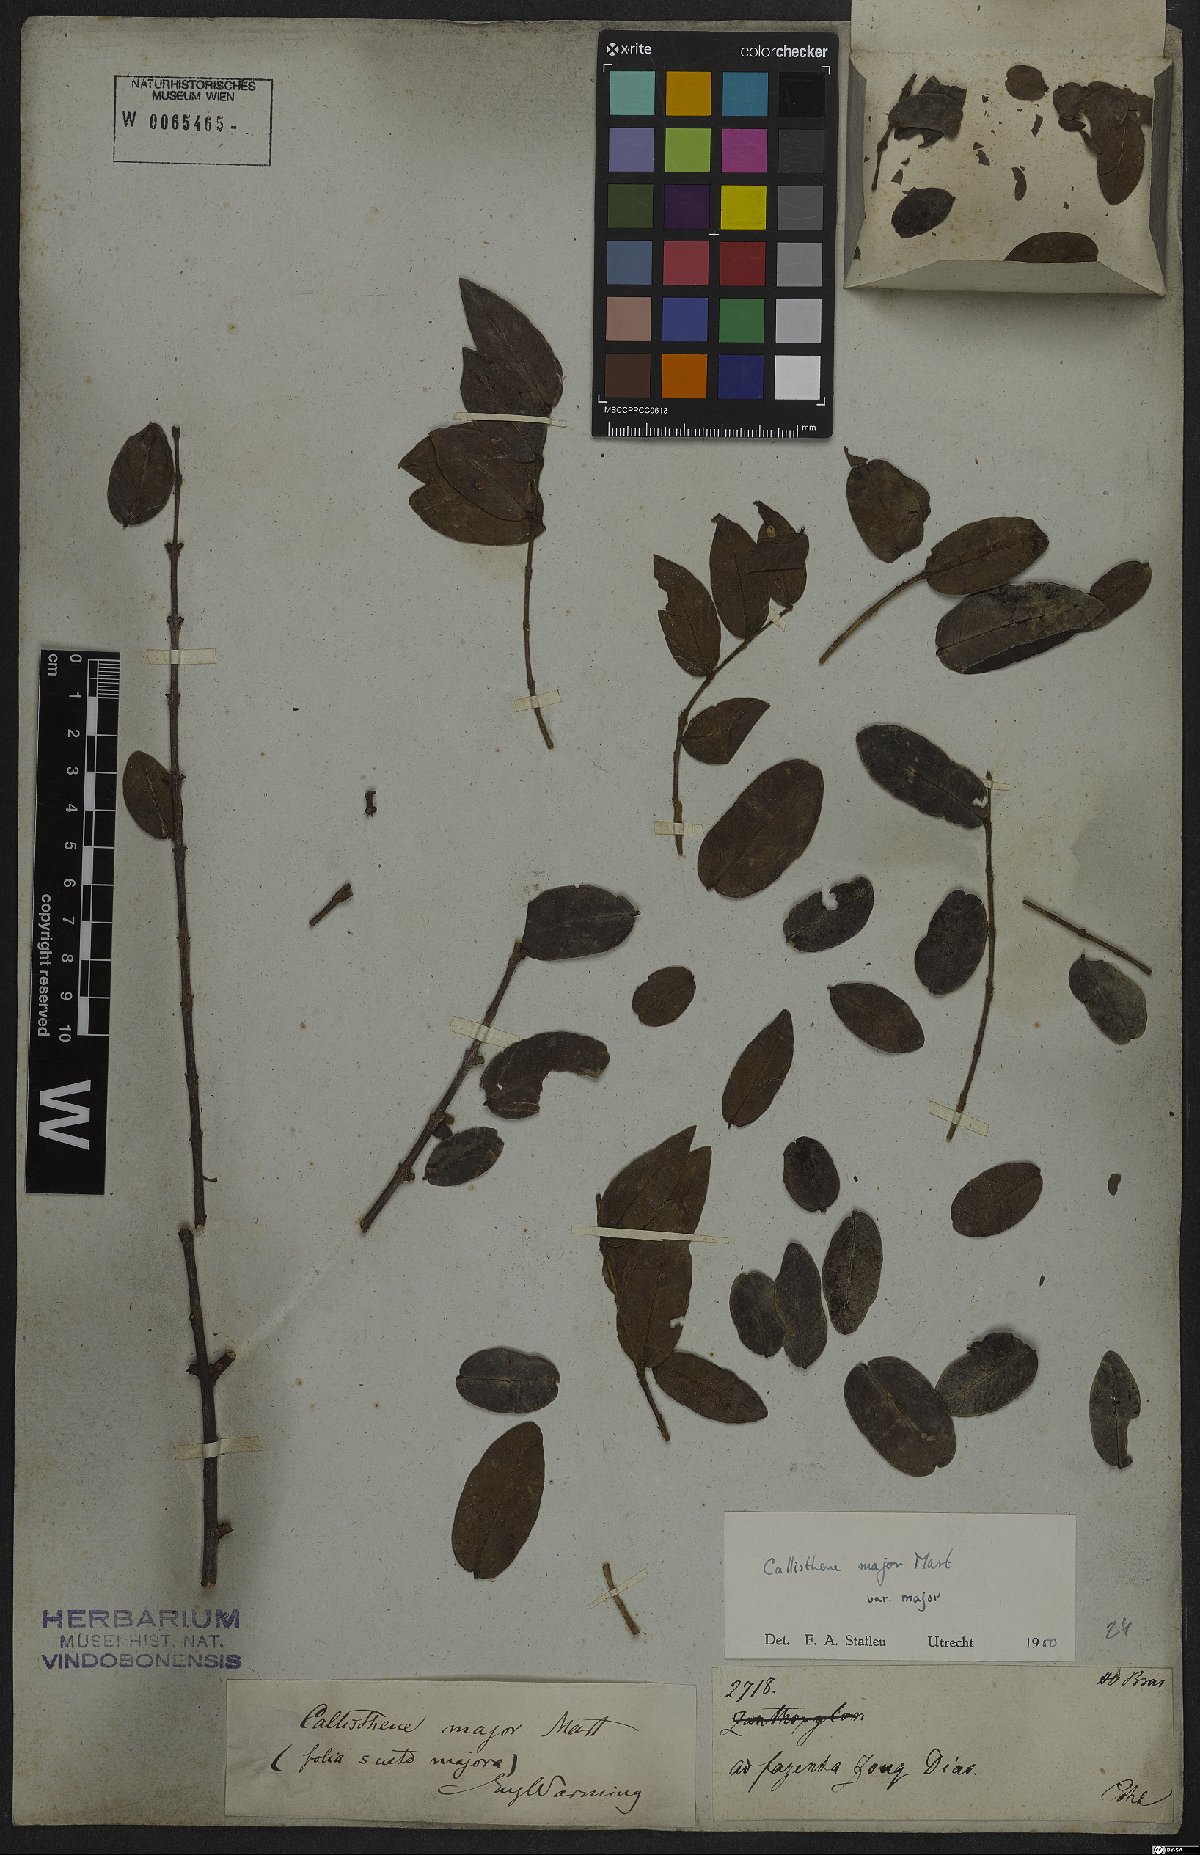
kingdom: Plantae
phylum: Tracheophyta
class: Magnoliopsida
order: Myrtales
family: Vochysiaceae
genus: Callisthene
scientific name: Callisthene major
